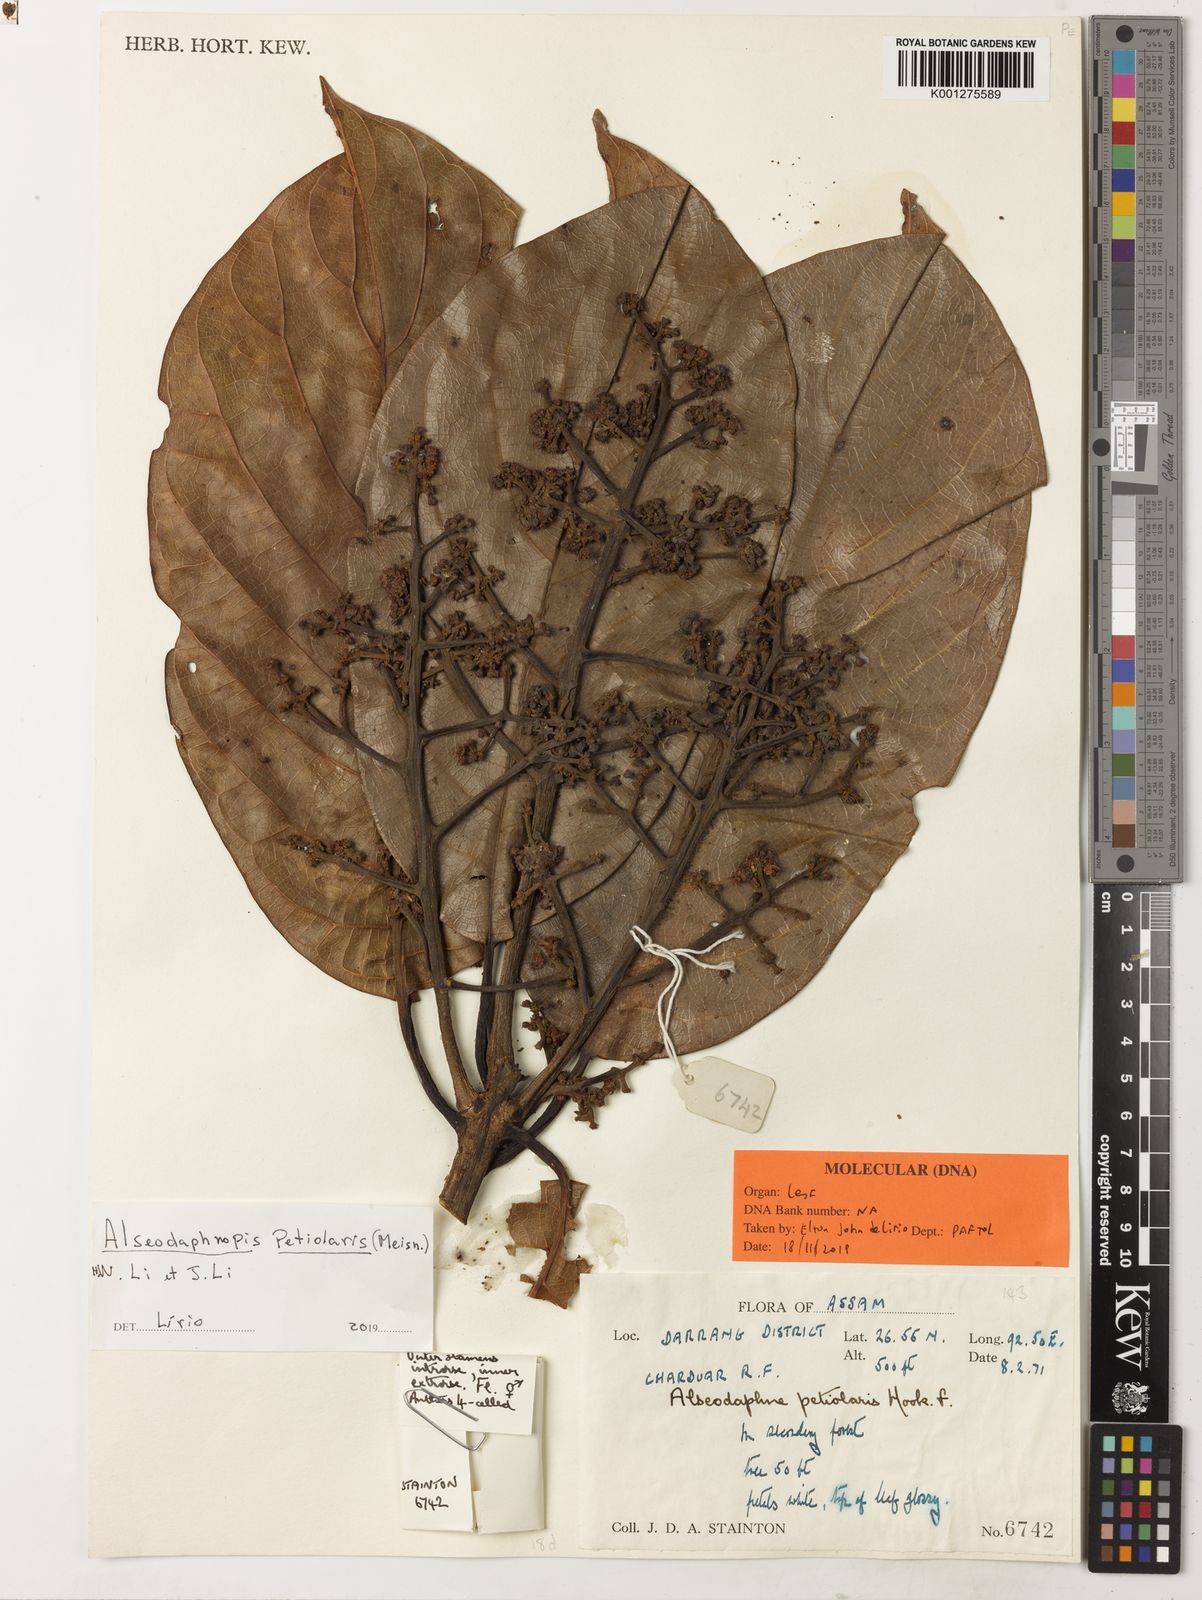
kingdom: Plantae
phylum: Tracheophyta
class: Magnoliopsida
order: Laurales
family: Lauraceae
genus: Alseodaphnopsis
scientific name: Alseodaphnopsis petiolaris
